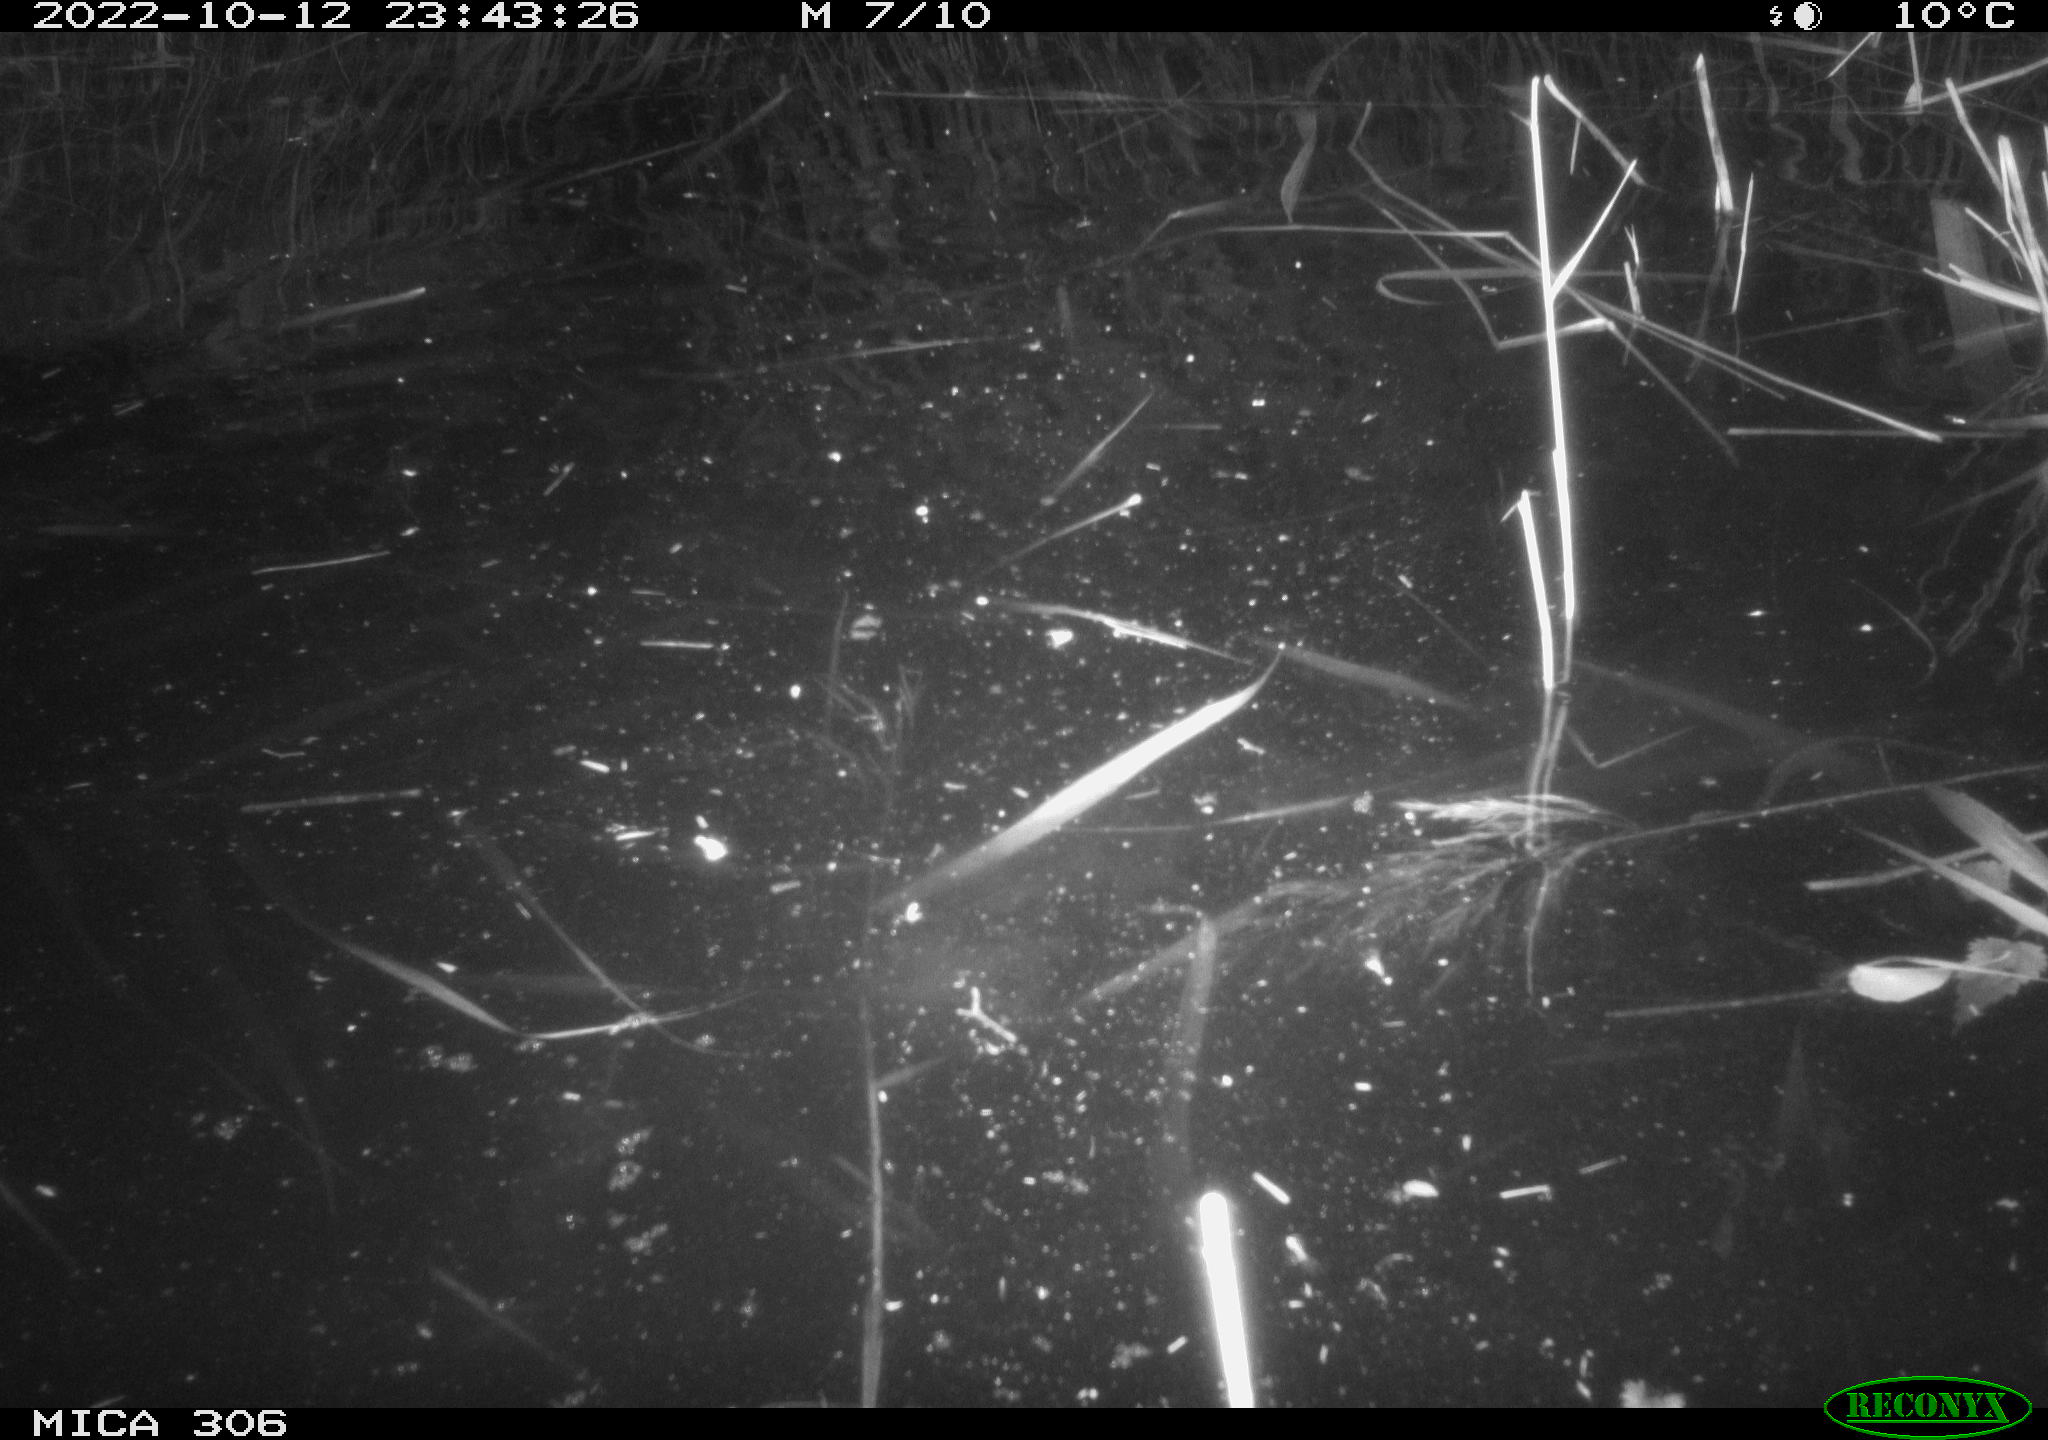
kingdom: Animalia
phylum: Chordata
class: Mammalia
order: Rodentia
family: Muridae
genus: Rattus
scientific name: Rattus norvegicus
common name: Brown rat
